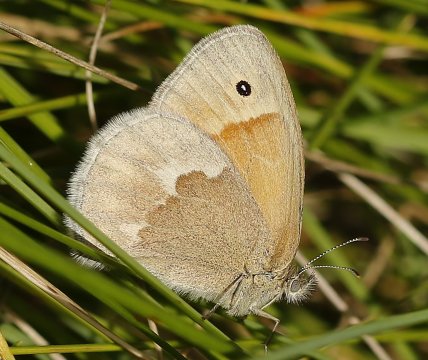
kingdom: Animalia
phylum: Arthropoda
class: Insecta
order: Lepidoptera
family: Nymphalidae
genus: Coenonympha
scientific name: Coenonympha tullia
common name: Large Heath
